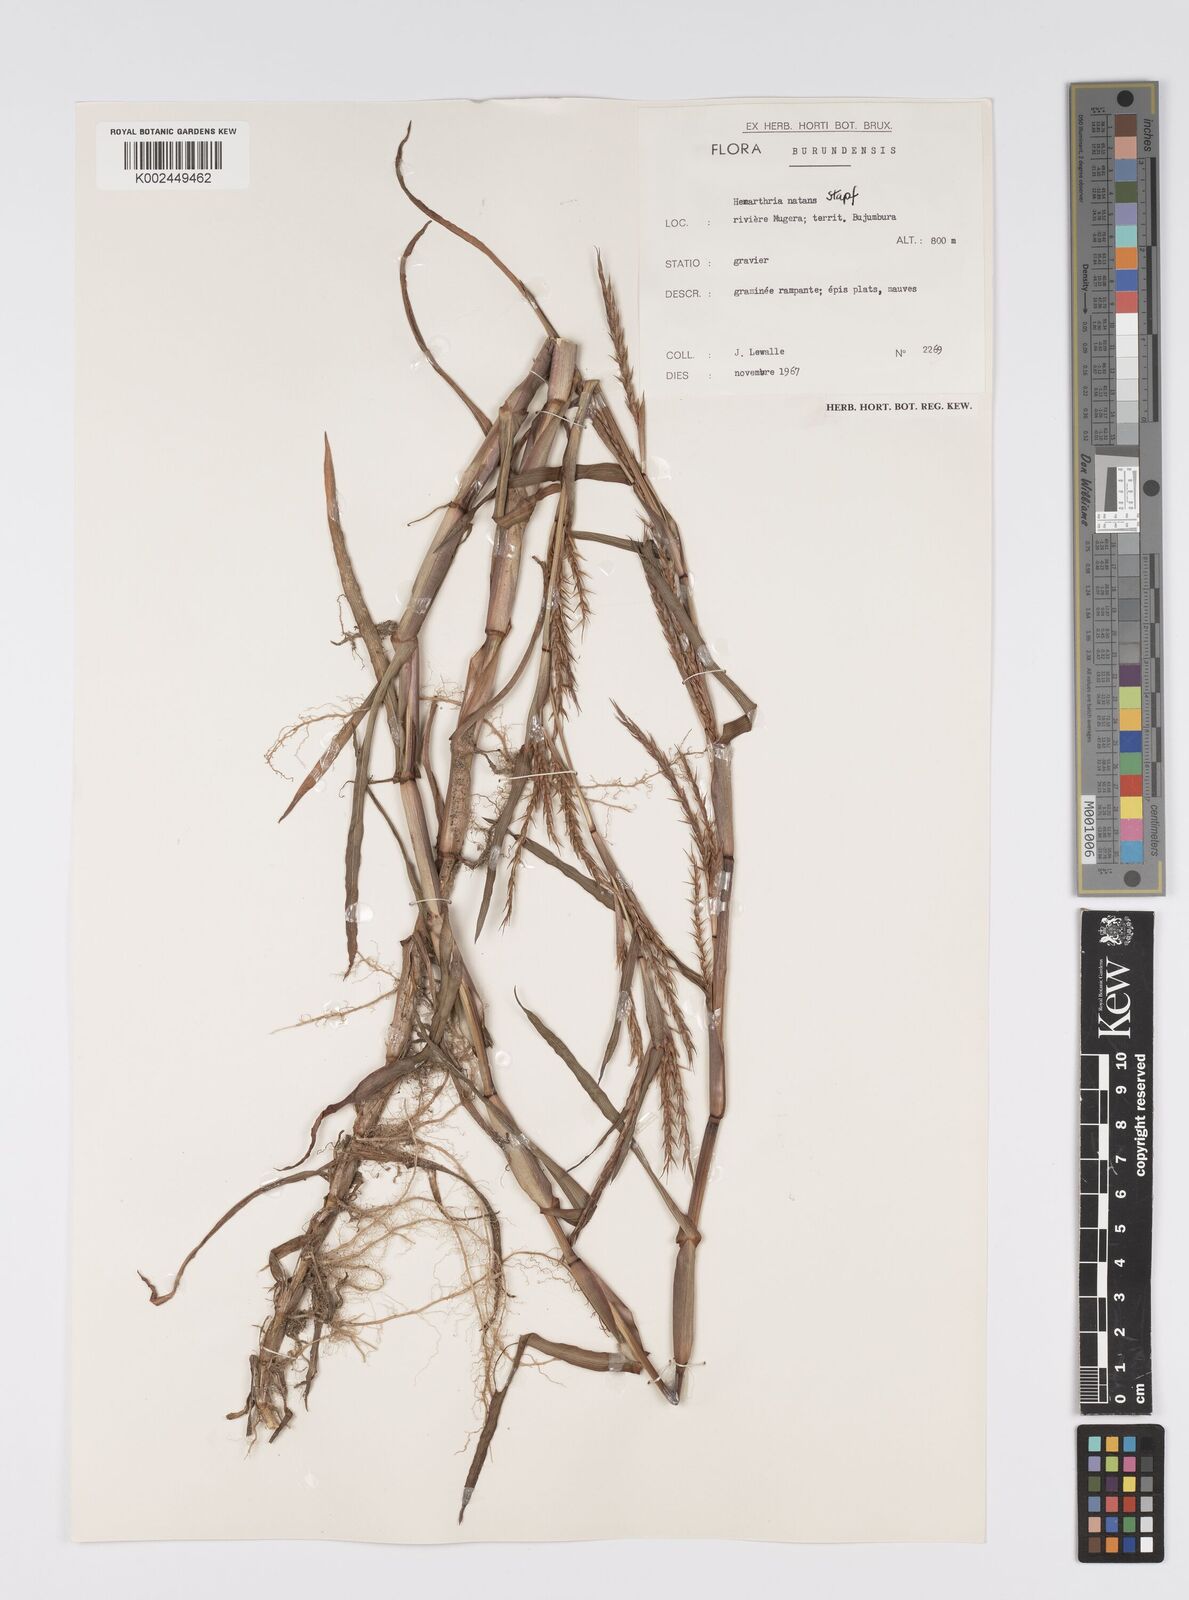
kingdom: Plantae
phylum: Tracheophyta
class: Liliopsida
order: Poales
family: Poaceae
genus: Hemarthria
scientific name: Hemarthria natans
